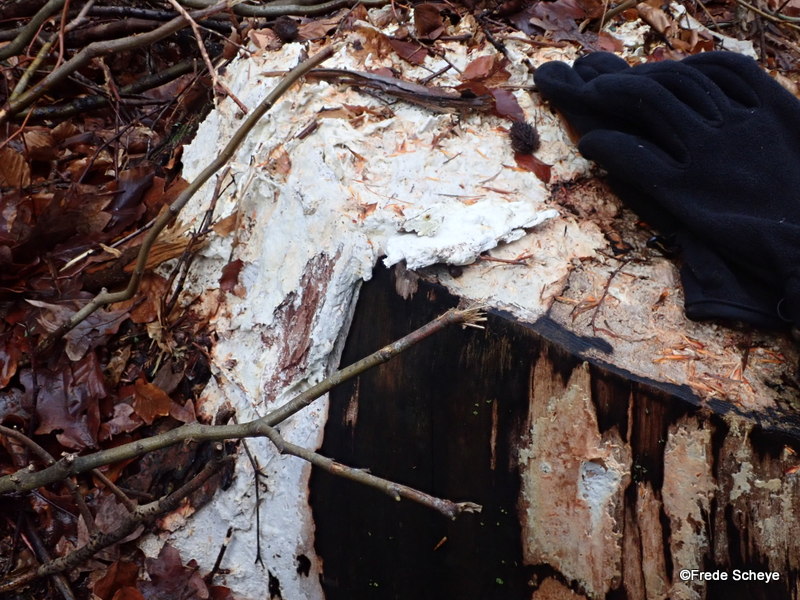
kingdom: Fungi
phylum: Basidiomycota
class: Agaricomycetes
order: Polyporales
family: Fomitopsidaceae
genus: Daedalea
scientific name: Daedalea xantha
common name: gul sejporesvamp
